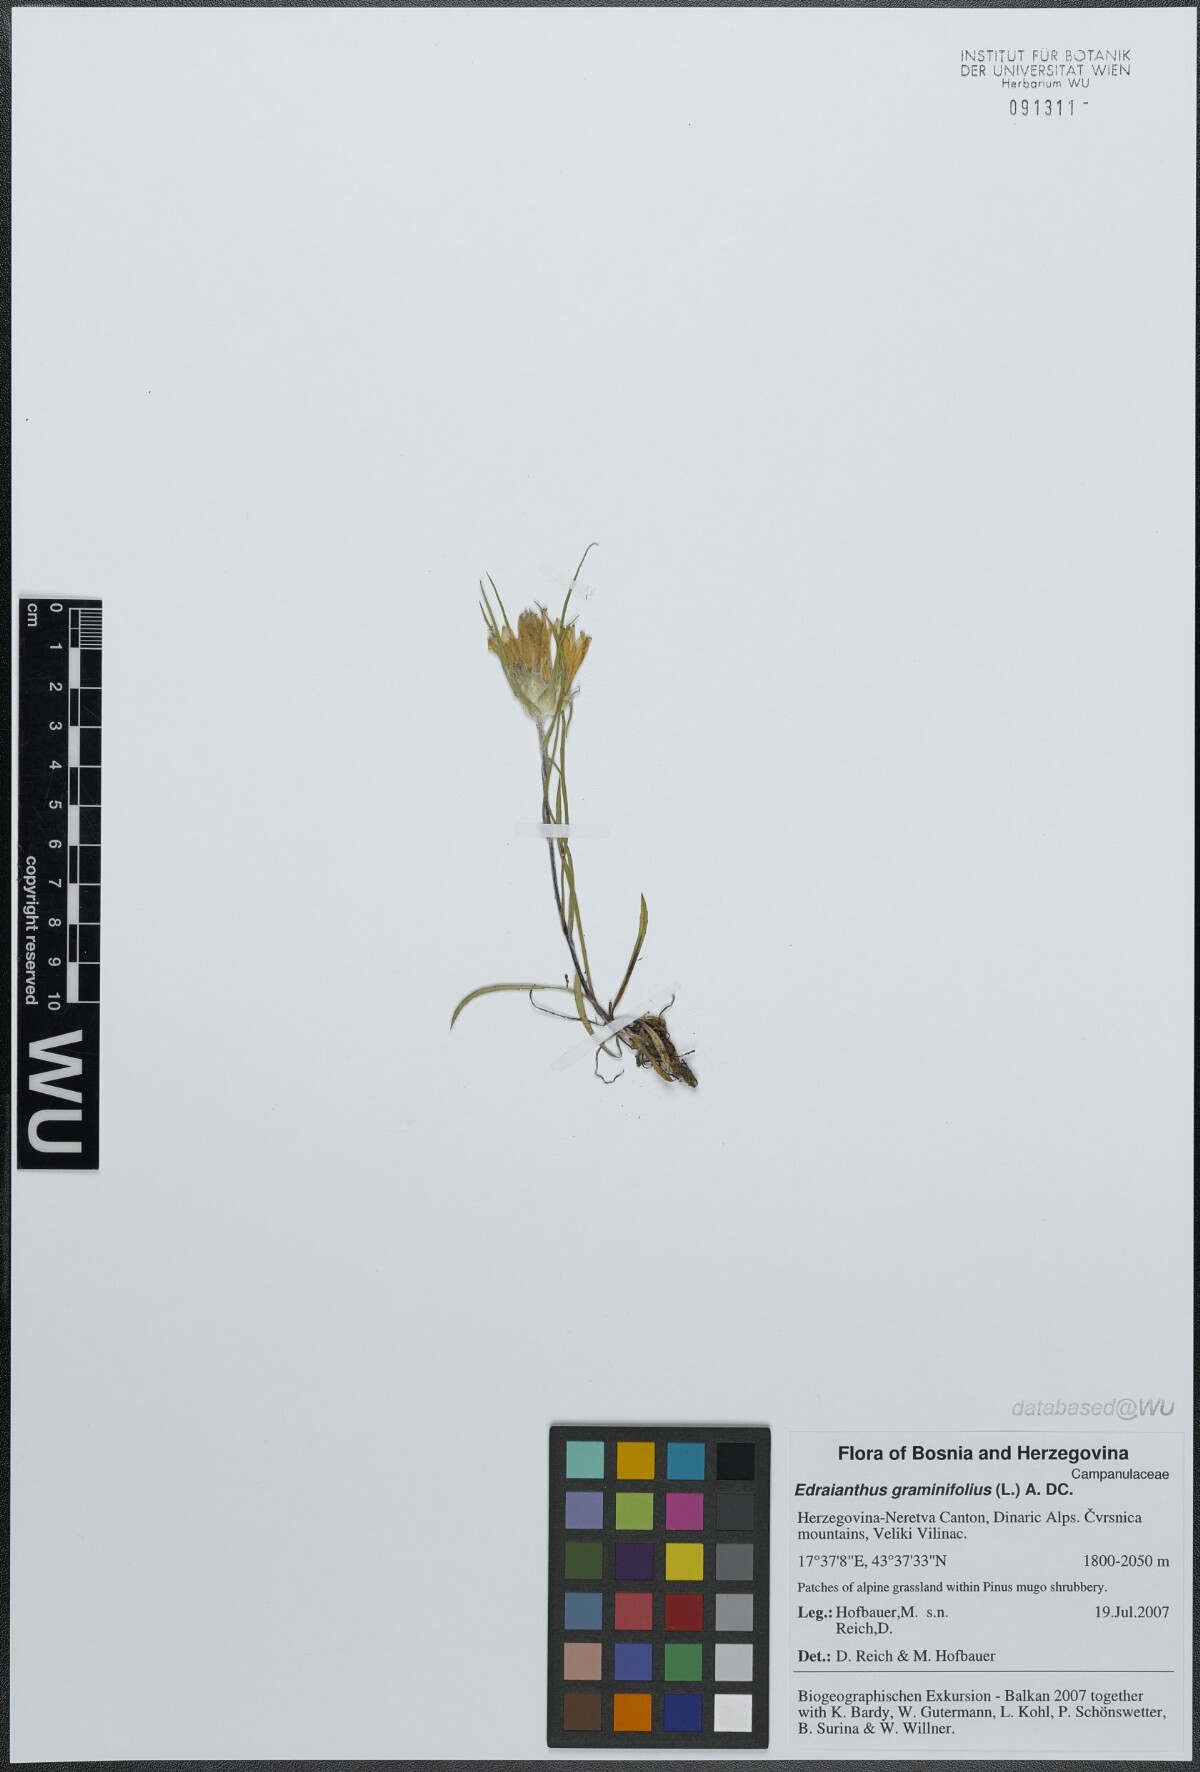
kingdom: Plantae
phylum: Tracheophyta
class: Magnoliopsida
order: Asterales
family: Campanulaceae
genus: Edraianthus
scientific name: Edraianthus graminifolius
